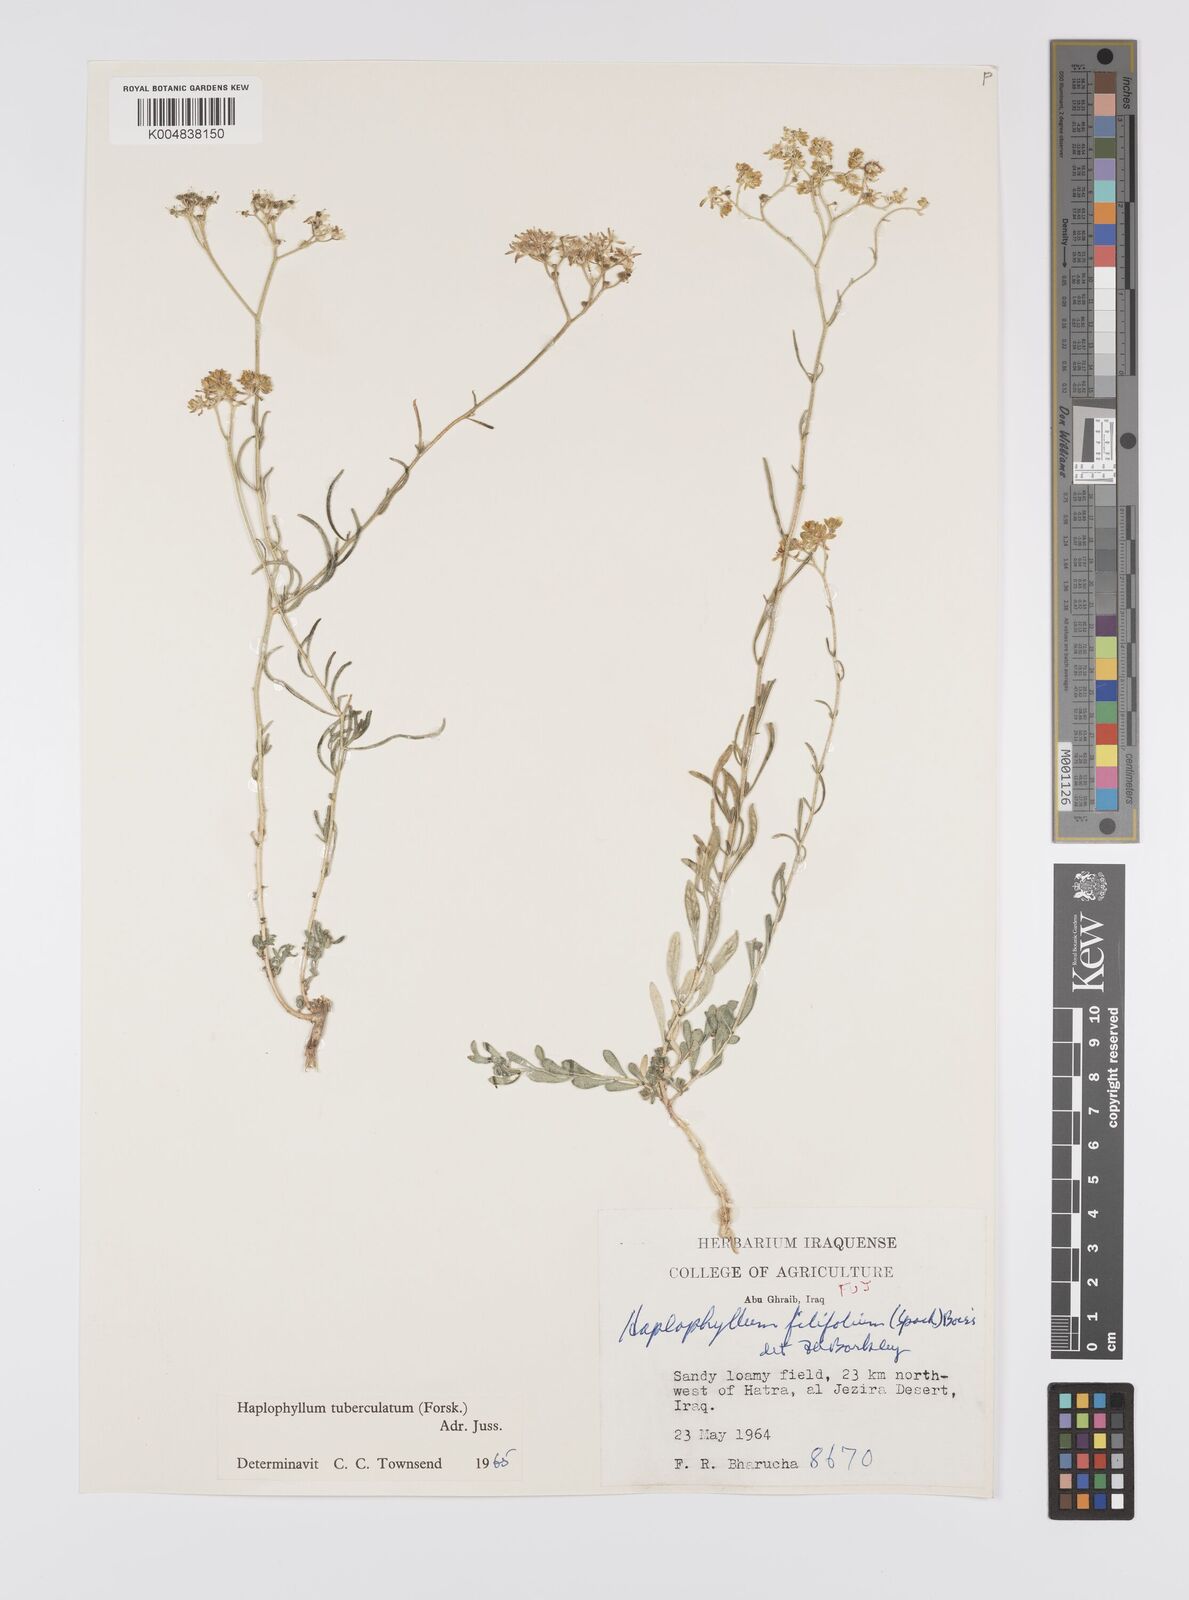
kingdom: Plantae
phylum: Tracheophyta
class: Magnoliopsida
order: Sapindales
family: Rutaceae
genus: Haplophyllum
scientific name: Haplophyllum tuberculatum
